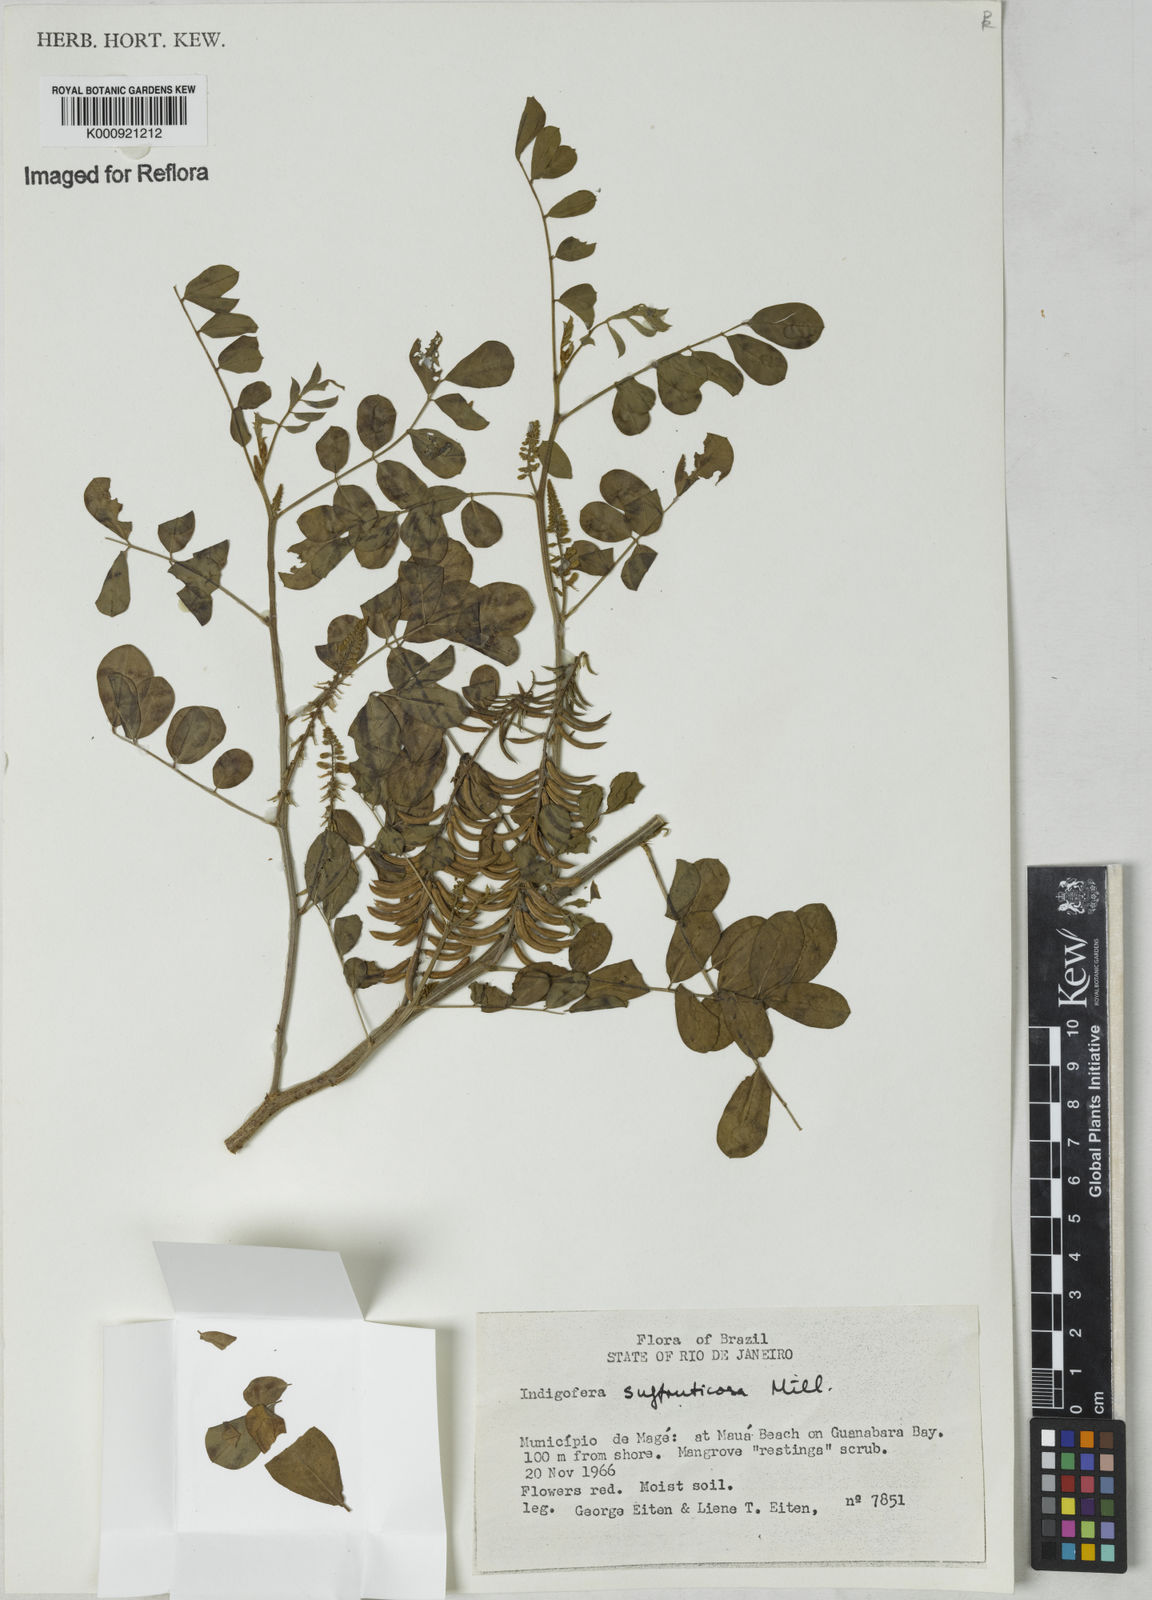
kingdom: Plantae
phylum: Tracheophyta
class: Magnoliopsida
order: Fabales
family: Fabaceae
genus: Indigofera
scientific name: Indigofera suffruticosa
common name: Anil de pasto
